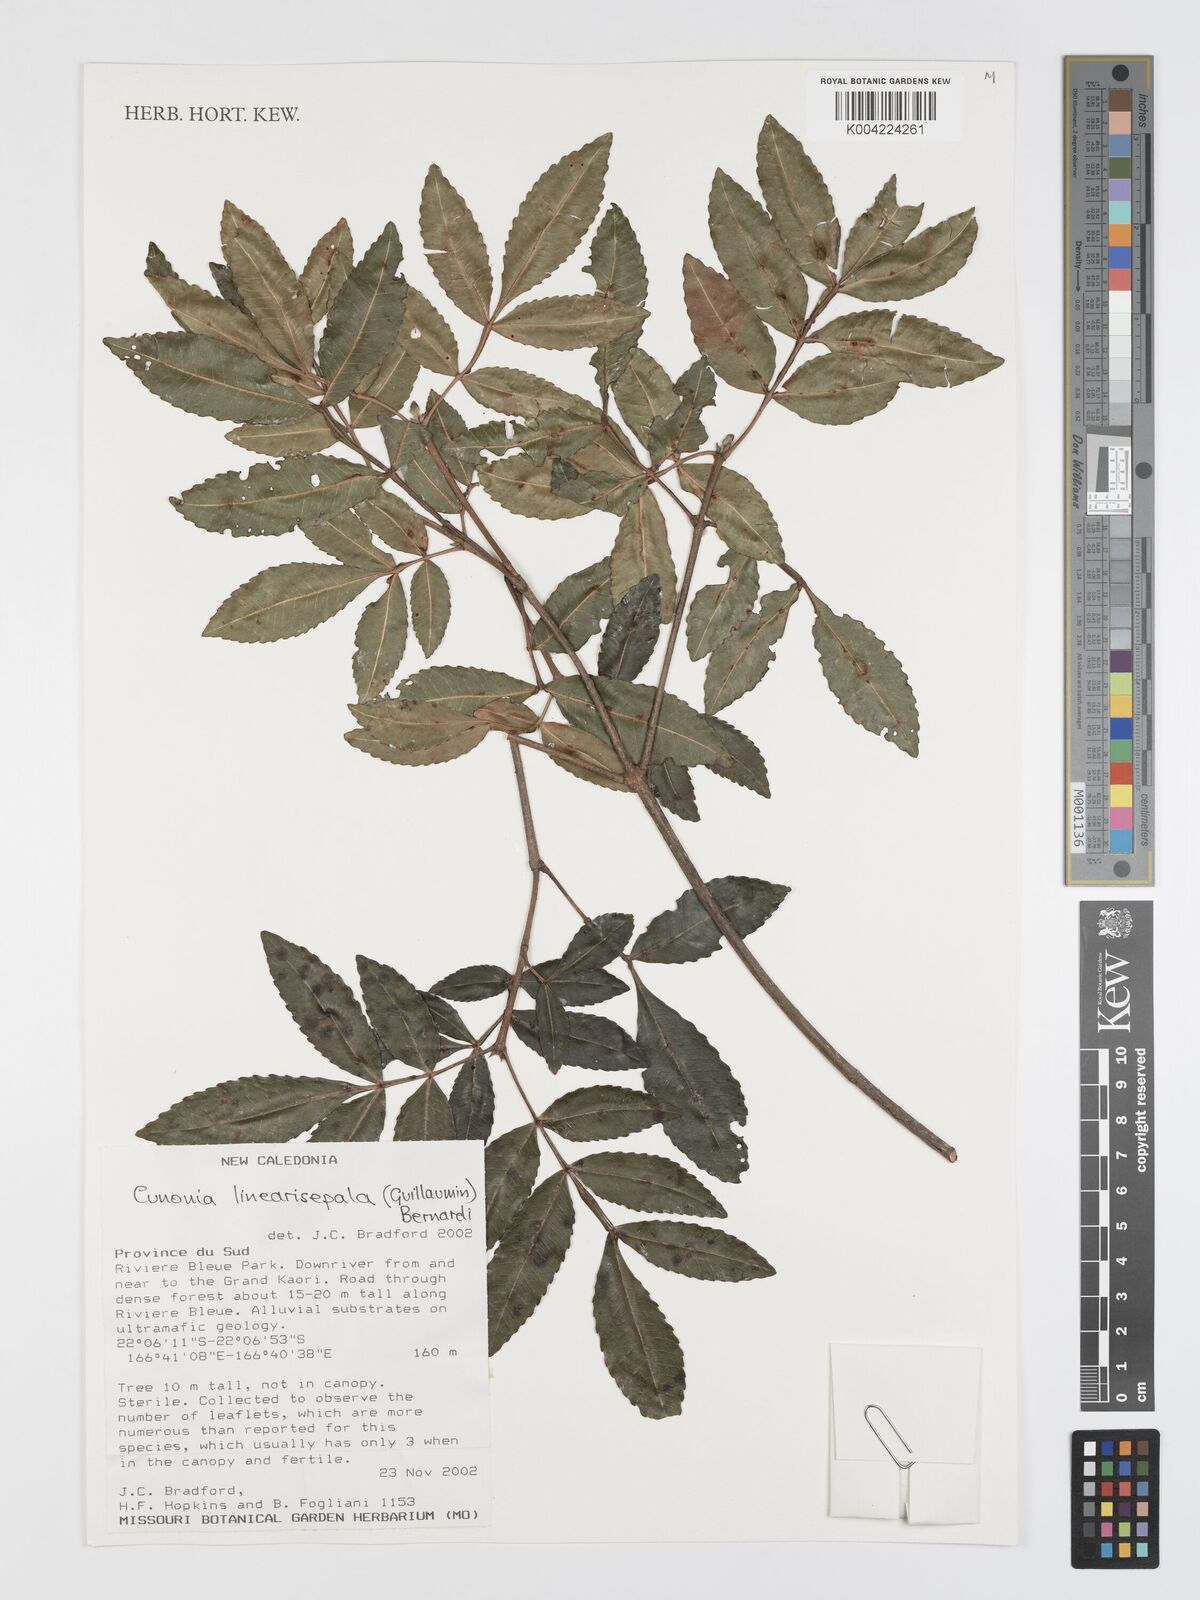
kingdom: Plantae
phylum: Tracheophyta
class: Magnoliopsida
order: Oxalidales
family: Cunoniaceae
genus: Cunonia
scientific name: Cunonia linearisepala
